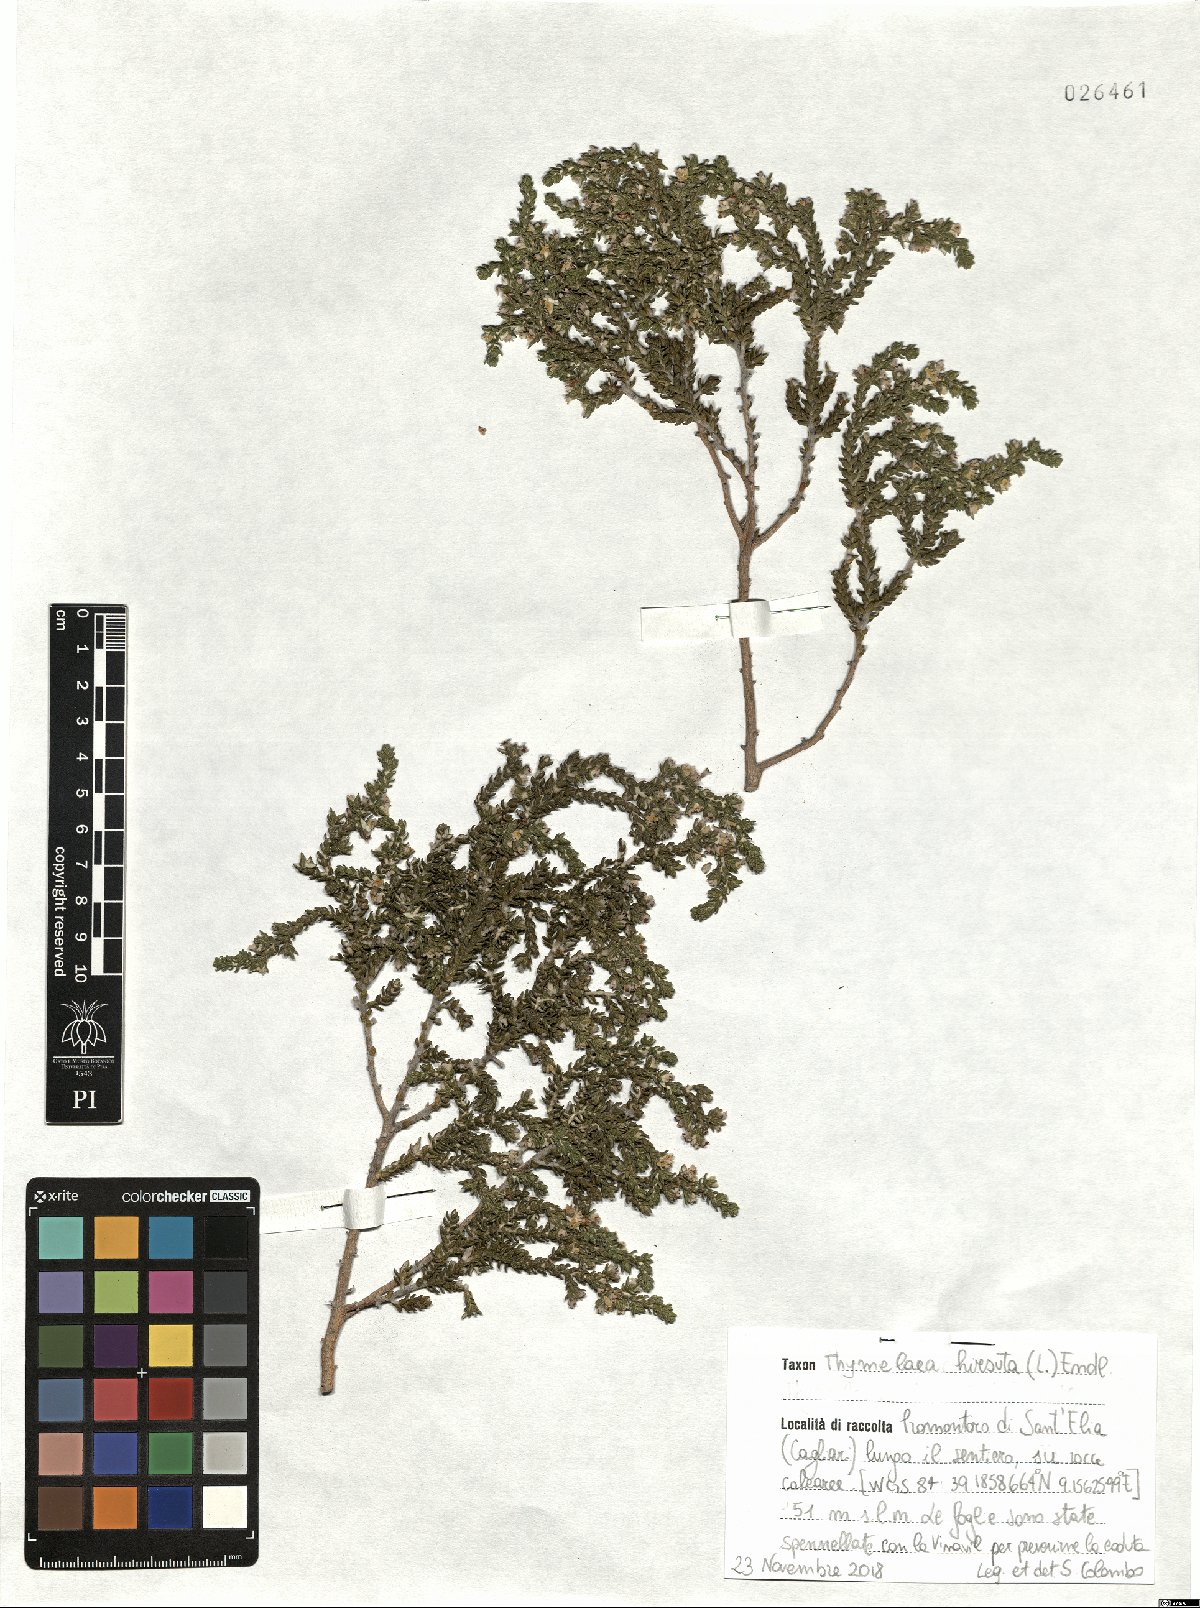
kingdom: Plantae
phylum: Tracheophyta
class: Magnoliopsida
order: Malvales
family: Thymelaeaceae
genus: Thymelaea
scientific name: Thymelaea hirsuta
